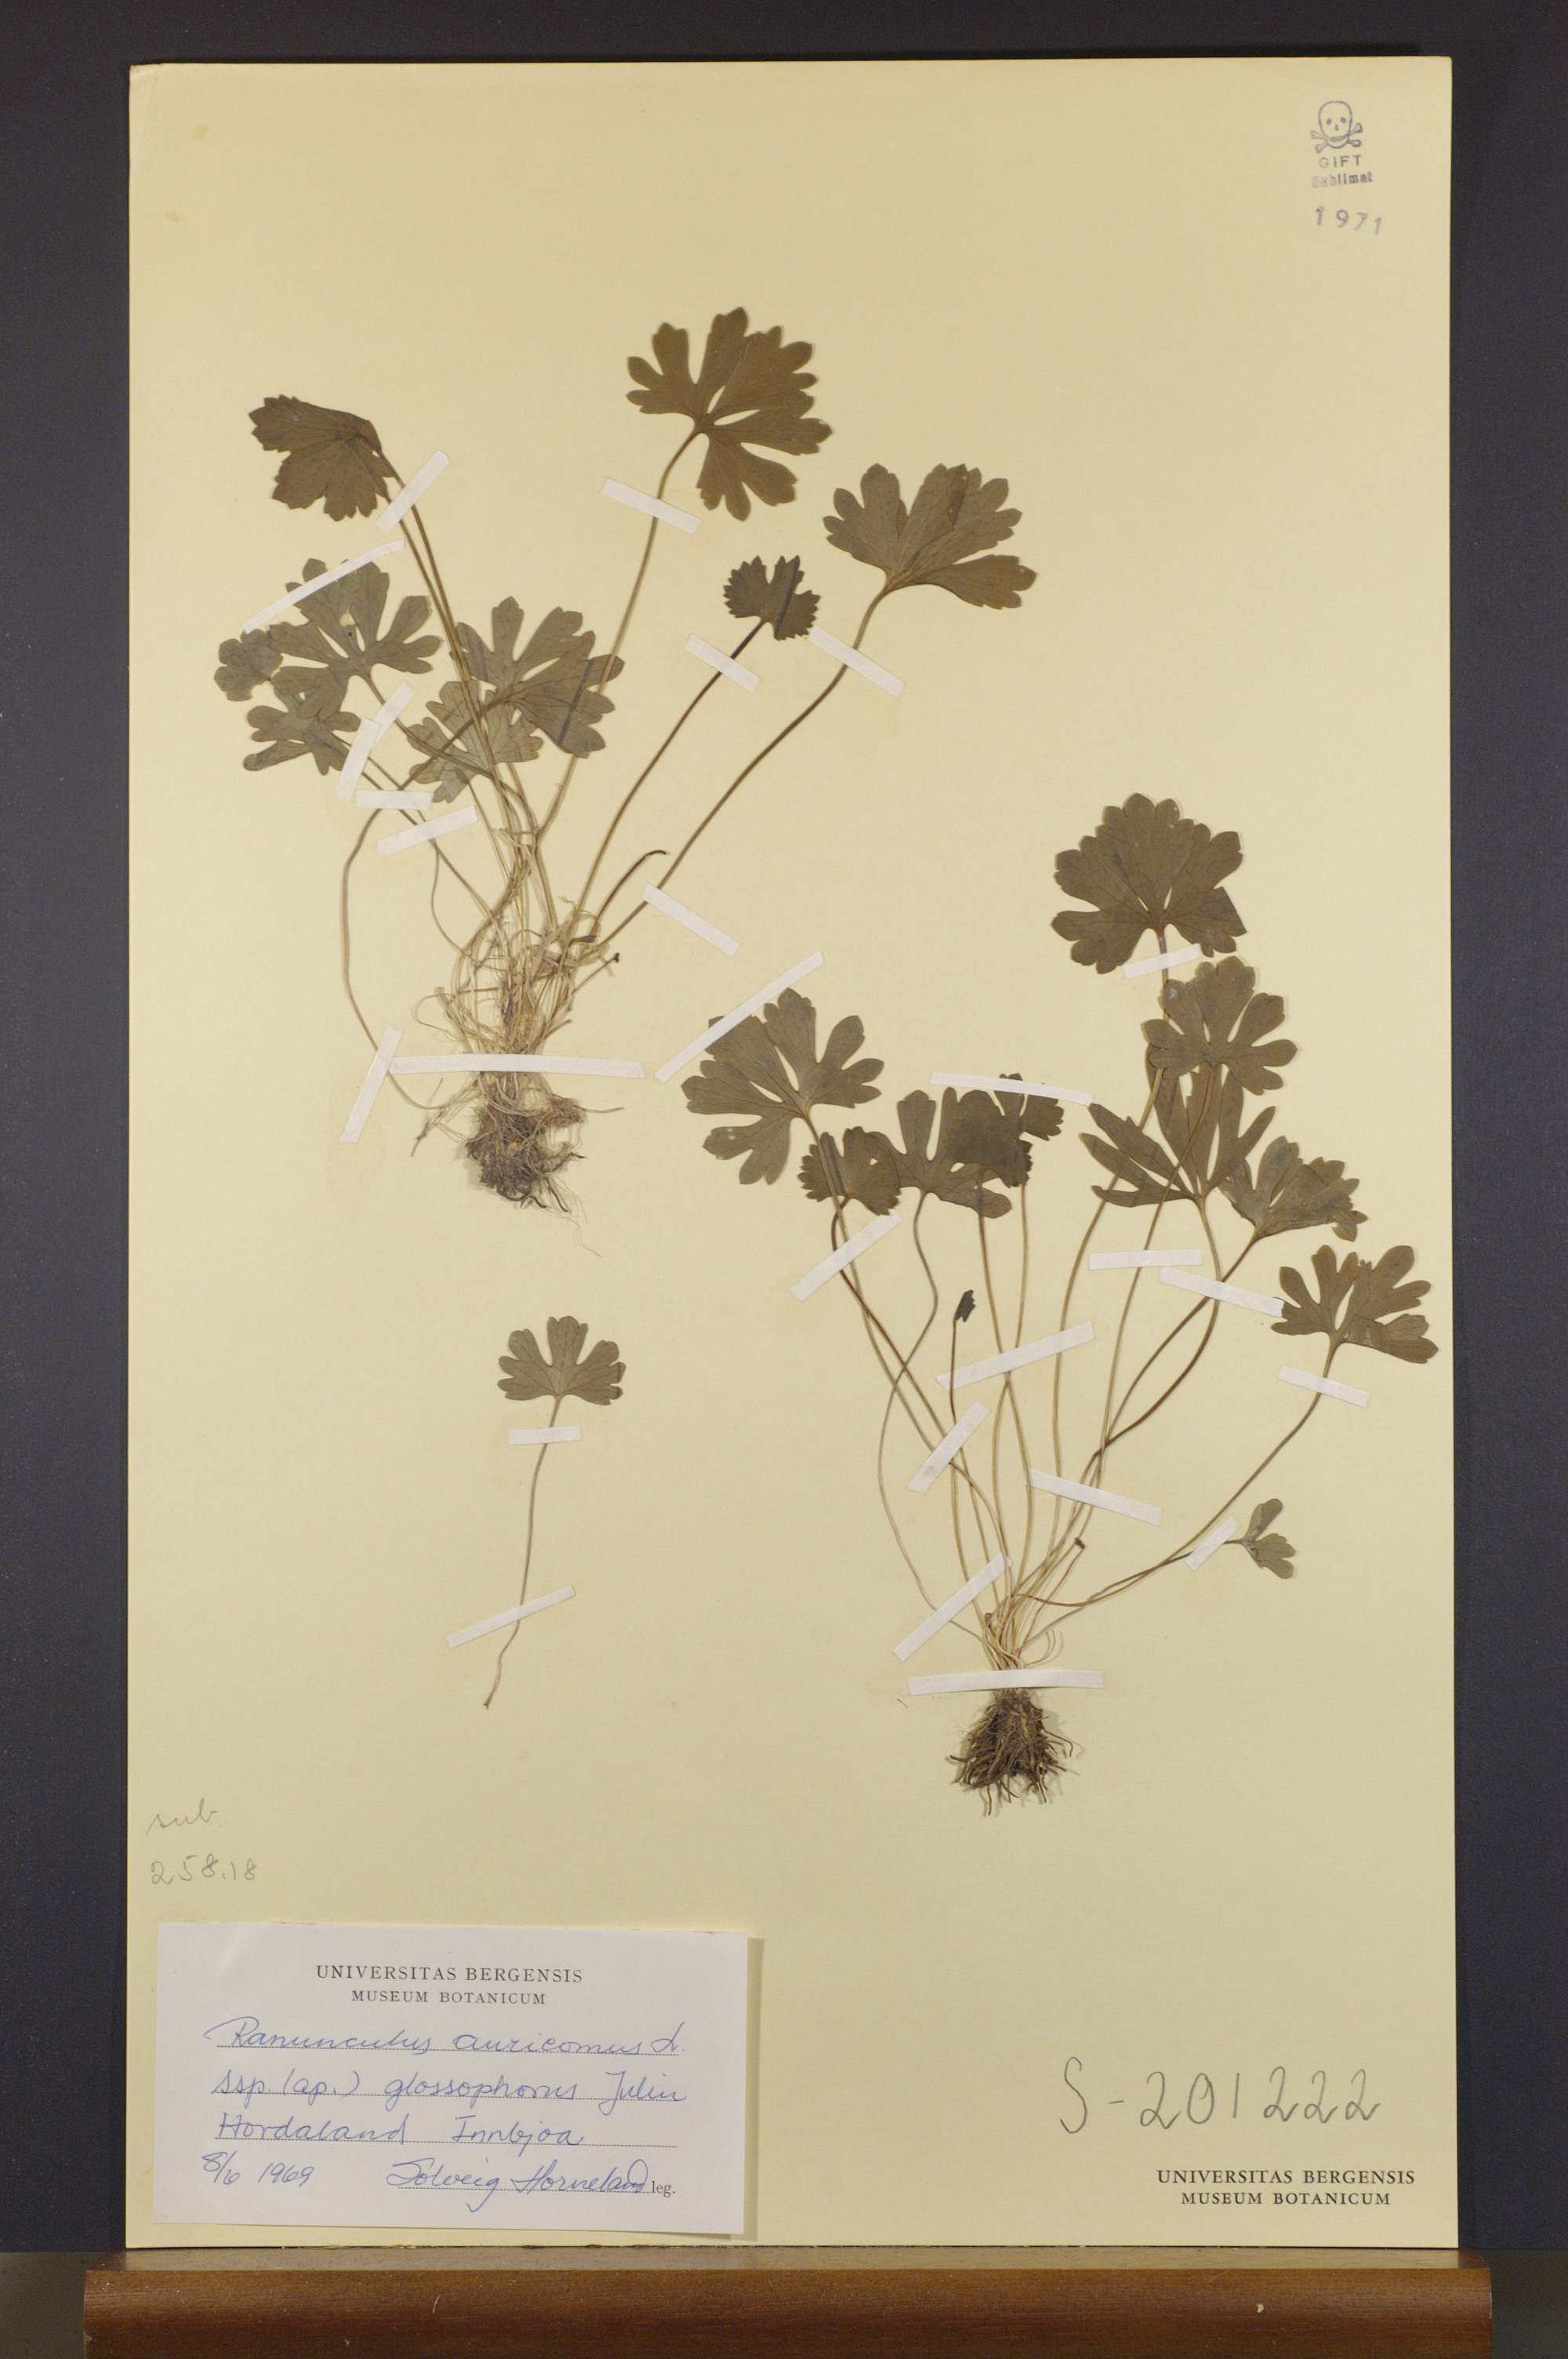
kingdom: Plantae
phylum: Tracheophyta
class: Magnoliopsida
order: Ranunculales
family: Ranunculaceae
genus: Ranunculus
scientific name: Ranunculus glossophorus
